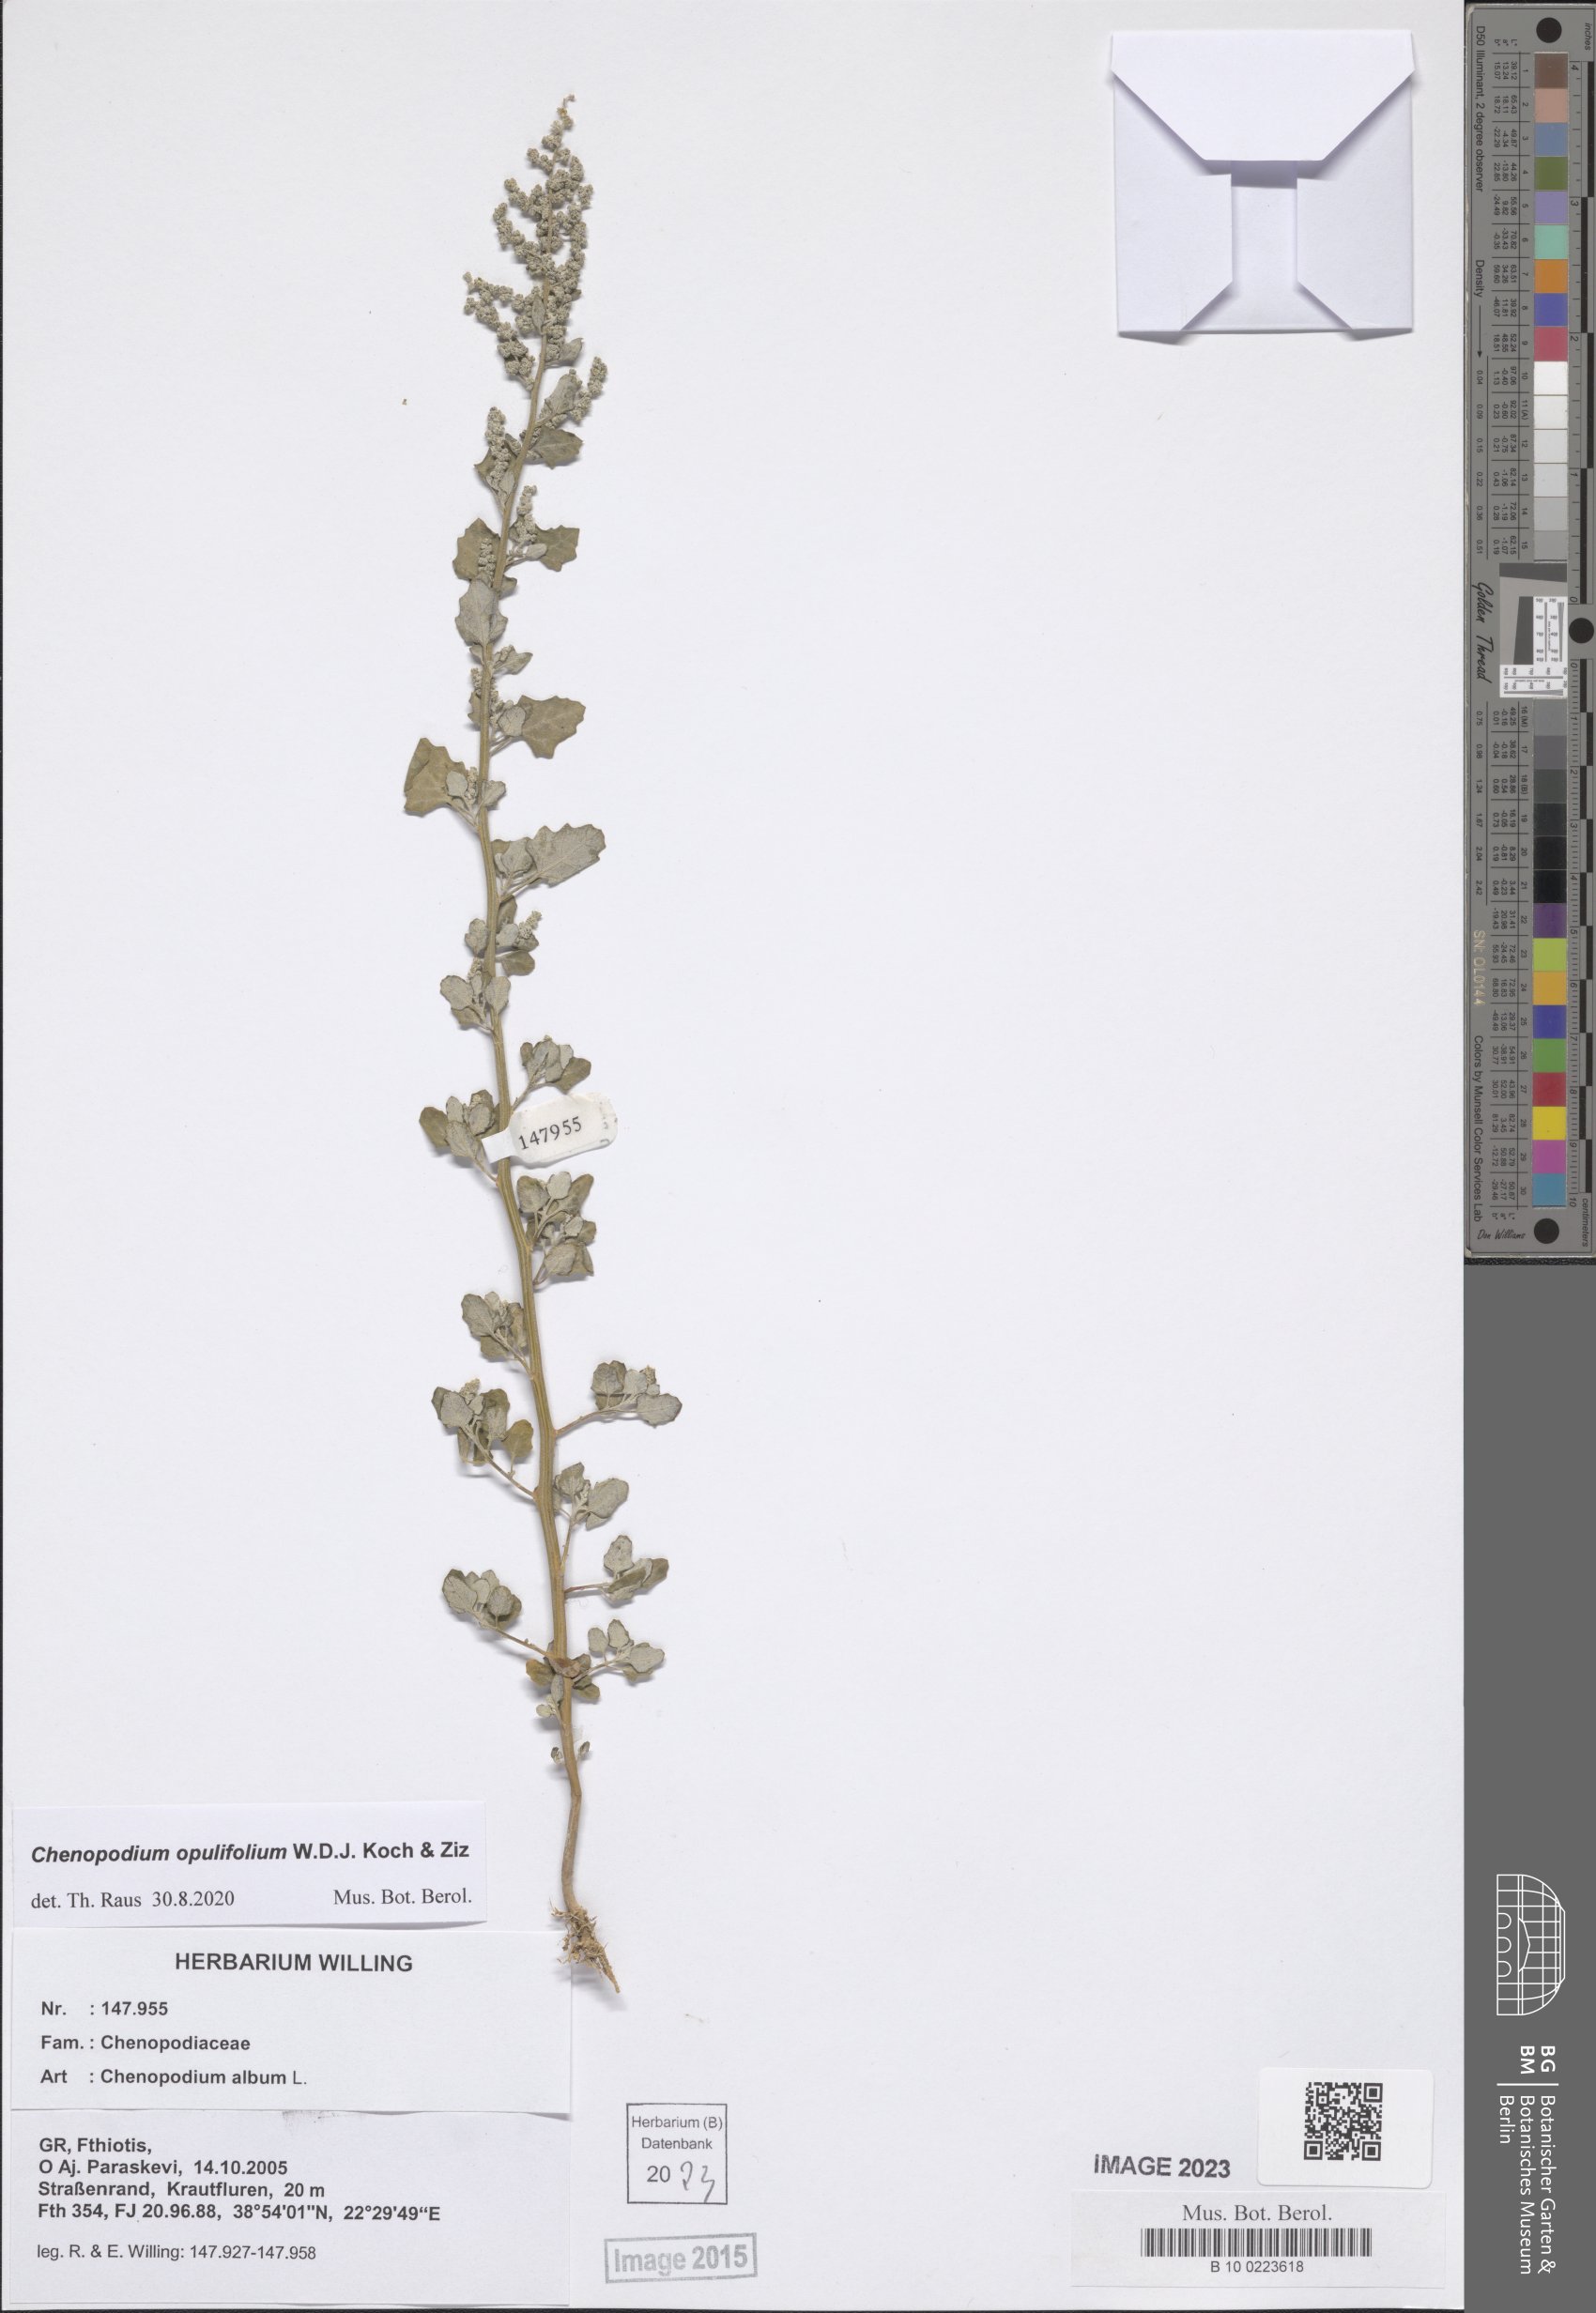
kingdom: Plantae
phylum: Tracheophyta
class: Magnoliopsida
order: Caryophyllales
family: Amaranthaceae
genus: Chenopodium
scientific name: Chenopodium opulifolium
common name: Grey goosefoot
